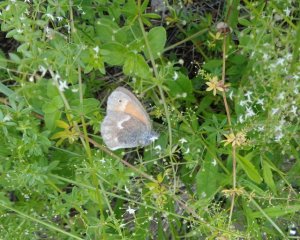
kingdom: Animalia
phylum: Arthropoda
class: Insecta
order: Lepidoptera
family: Nymphalidae
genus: Coenonympha
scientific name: Coenonympha tullia
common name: Large Heath
